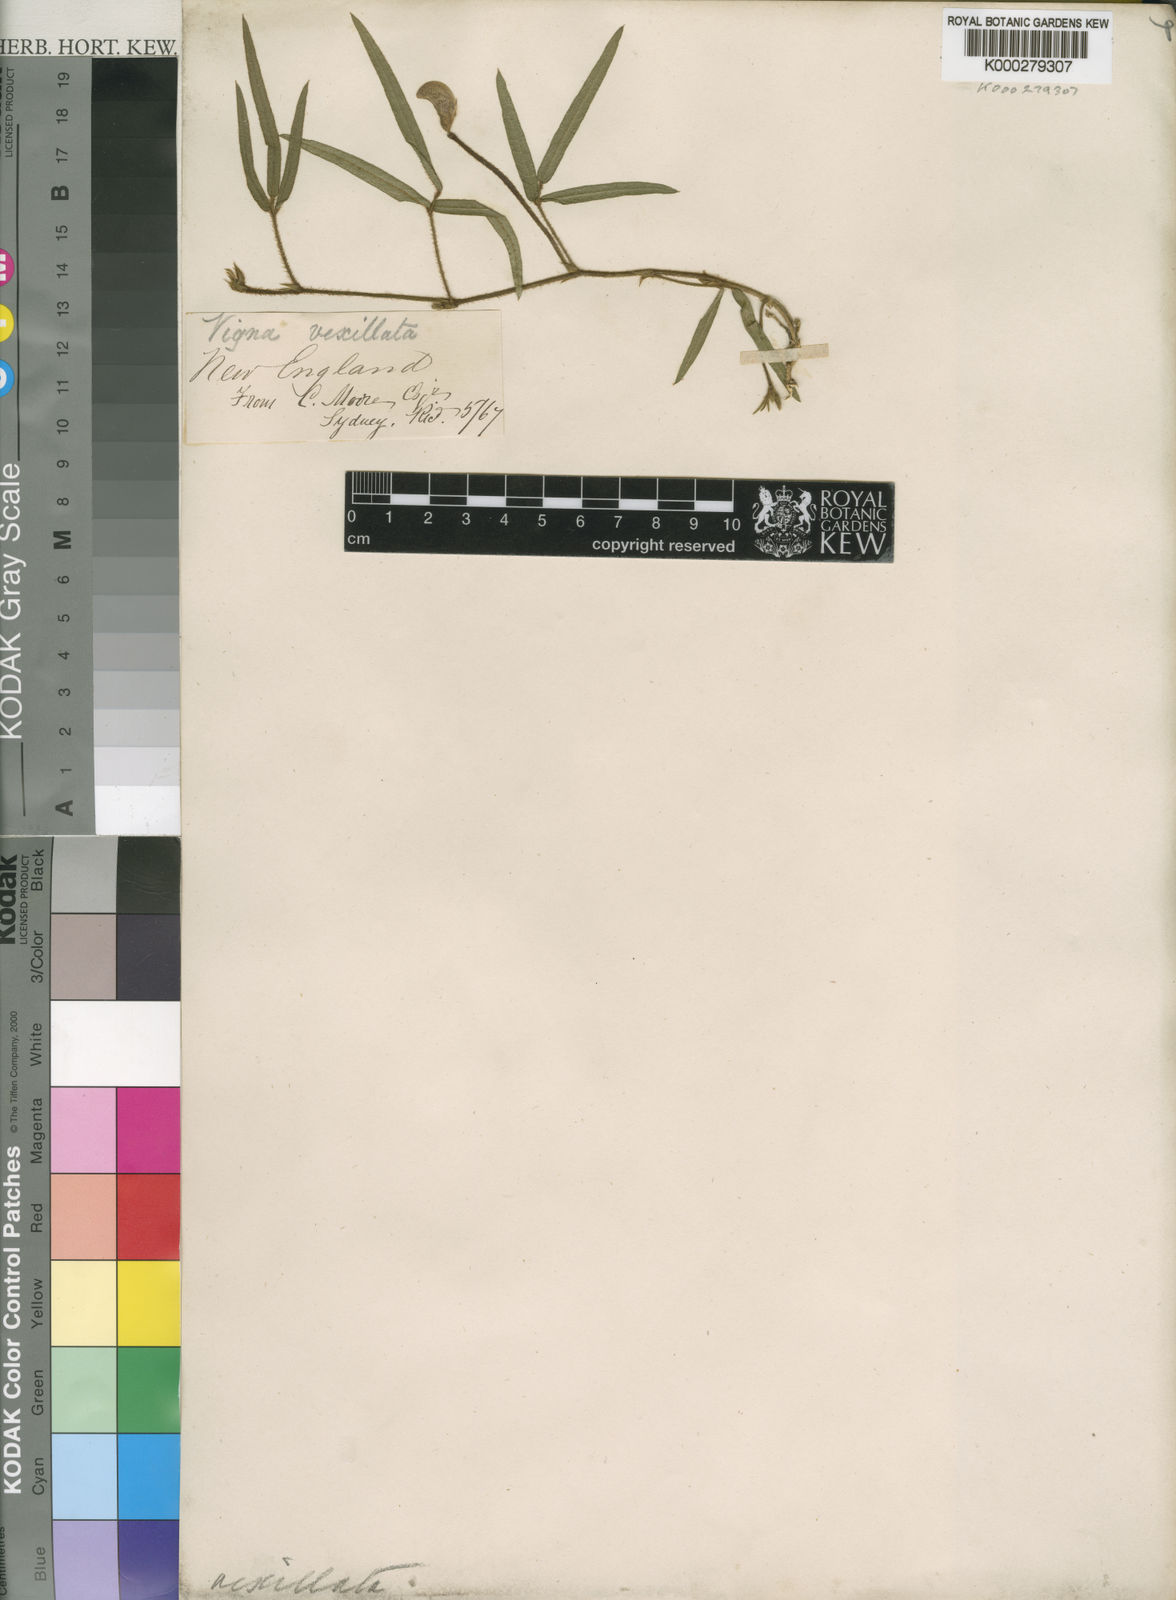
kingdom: Plantae
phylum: Tracheophyta
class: Magnoliopsida
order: Fabales
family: Fabaceae
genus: Vigna
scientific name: Vigna vexillata
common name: Zombi pea
